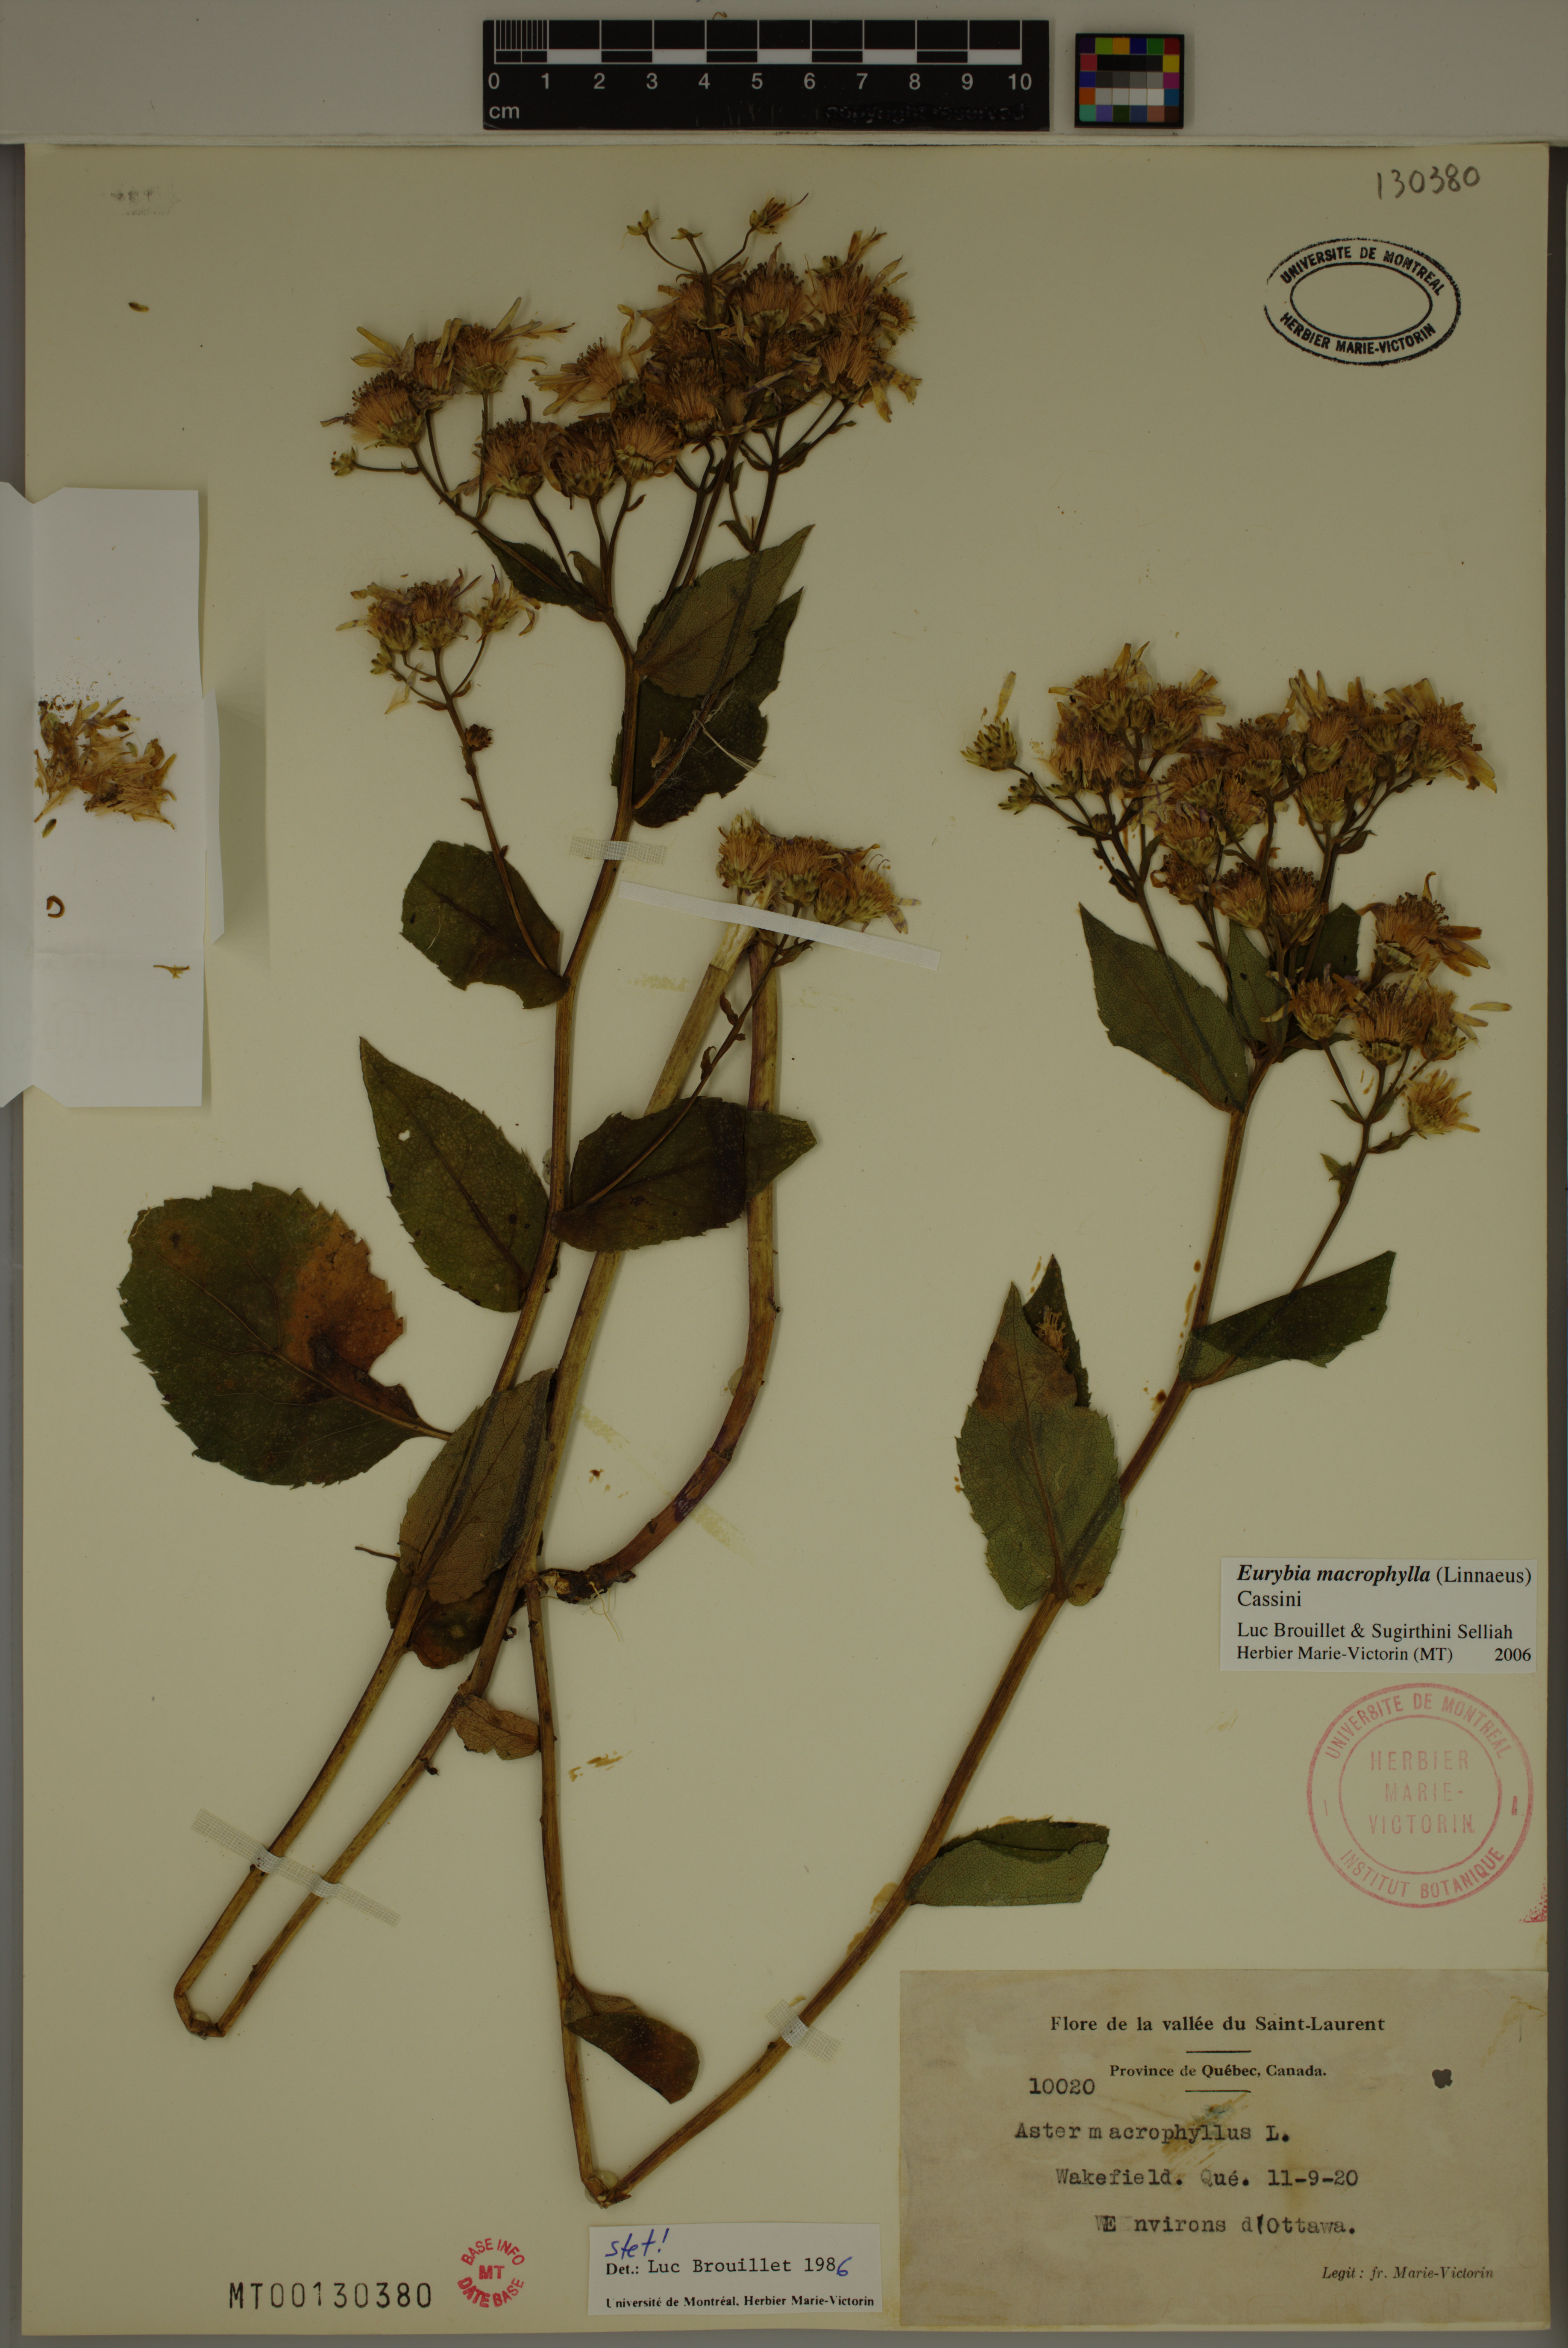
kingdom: Plantae
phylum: Tracheophyta
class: Magnoliopsida
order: Asterales
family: Asteraceae
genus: Eurybia
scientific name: Eurybia macrophylla
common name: Big-leaved aster
